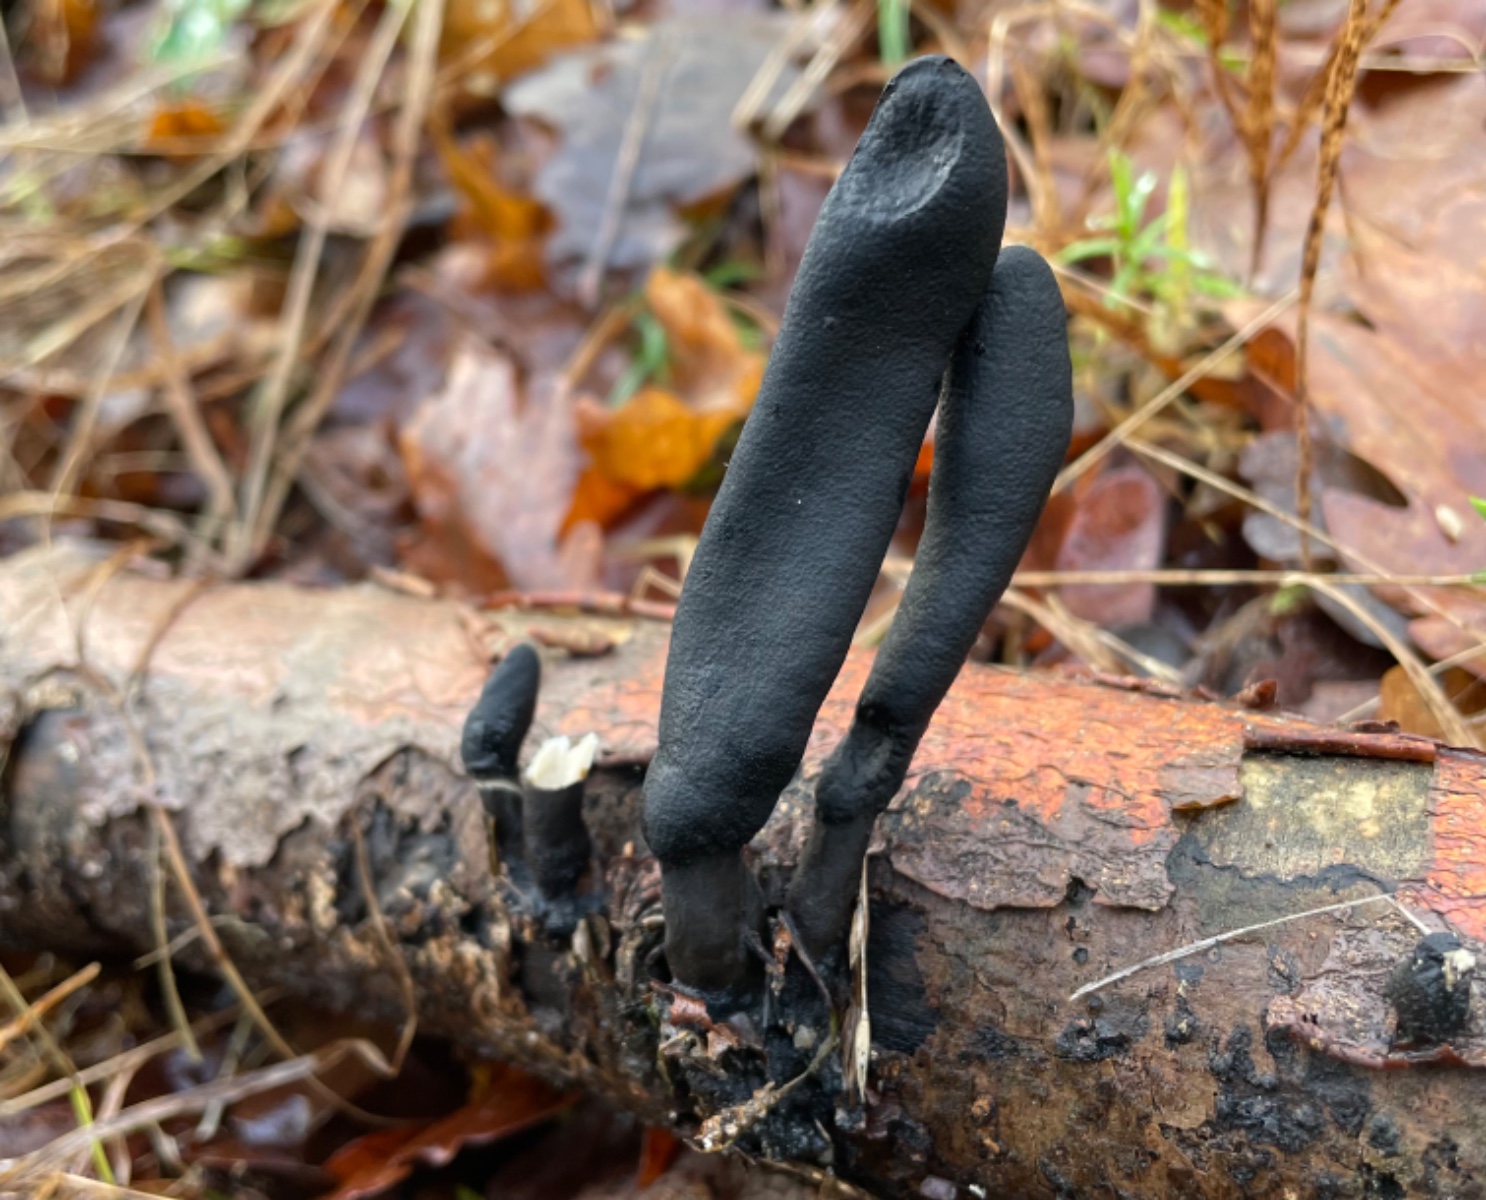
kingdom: Fungi
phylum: Ascomycota
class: Sordariomycetes
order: Xylariales
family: Xylariaceae
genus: Xylaria
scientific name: Xylaria longipes
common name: slank stødsvamp
